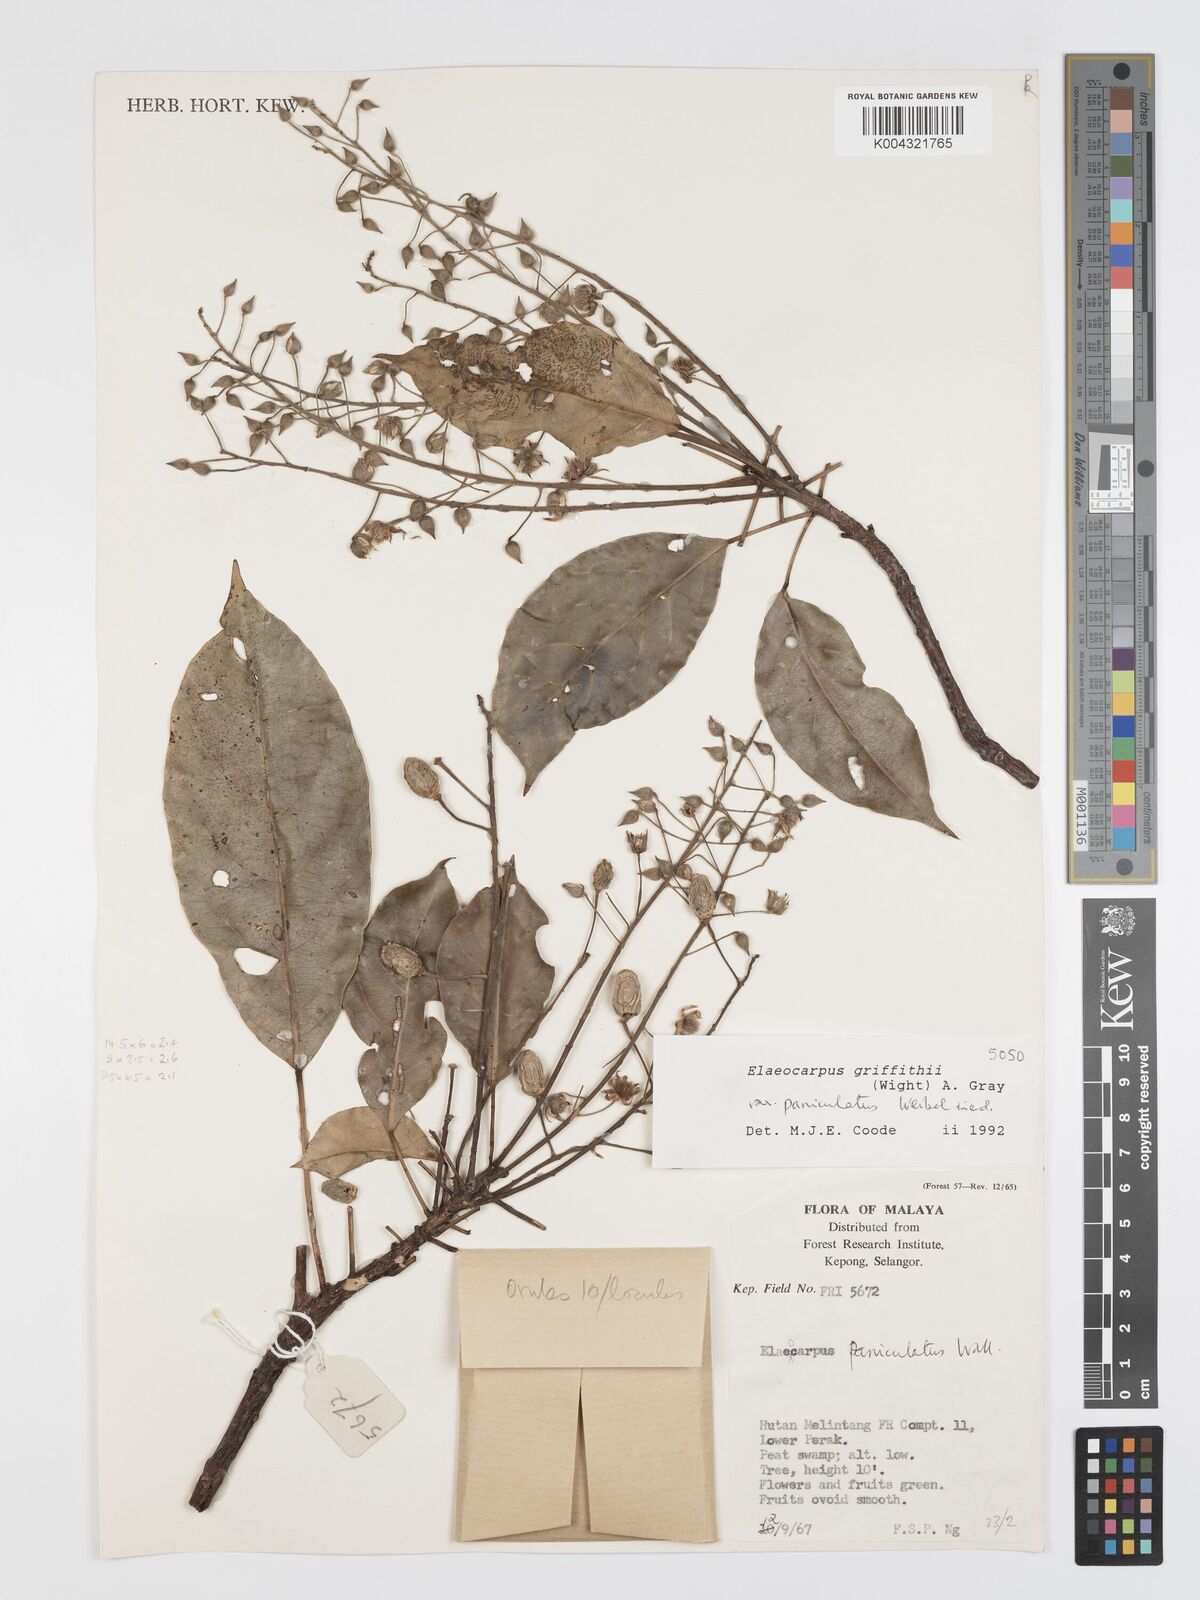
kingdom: Plantae
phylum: Tracheophyta
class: Magnoliopsida
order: Oxalidales
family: Elaeocarpaceae
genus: Elaeocarpus
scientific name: Elaeocarpus griffithii
